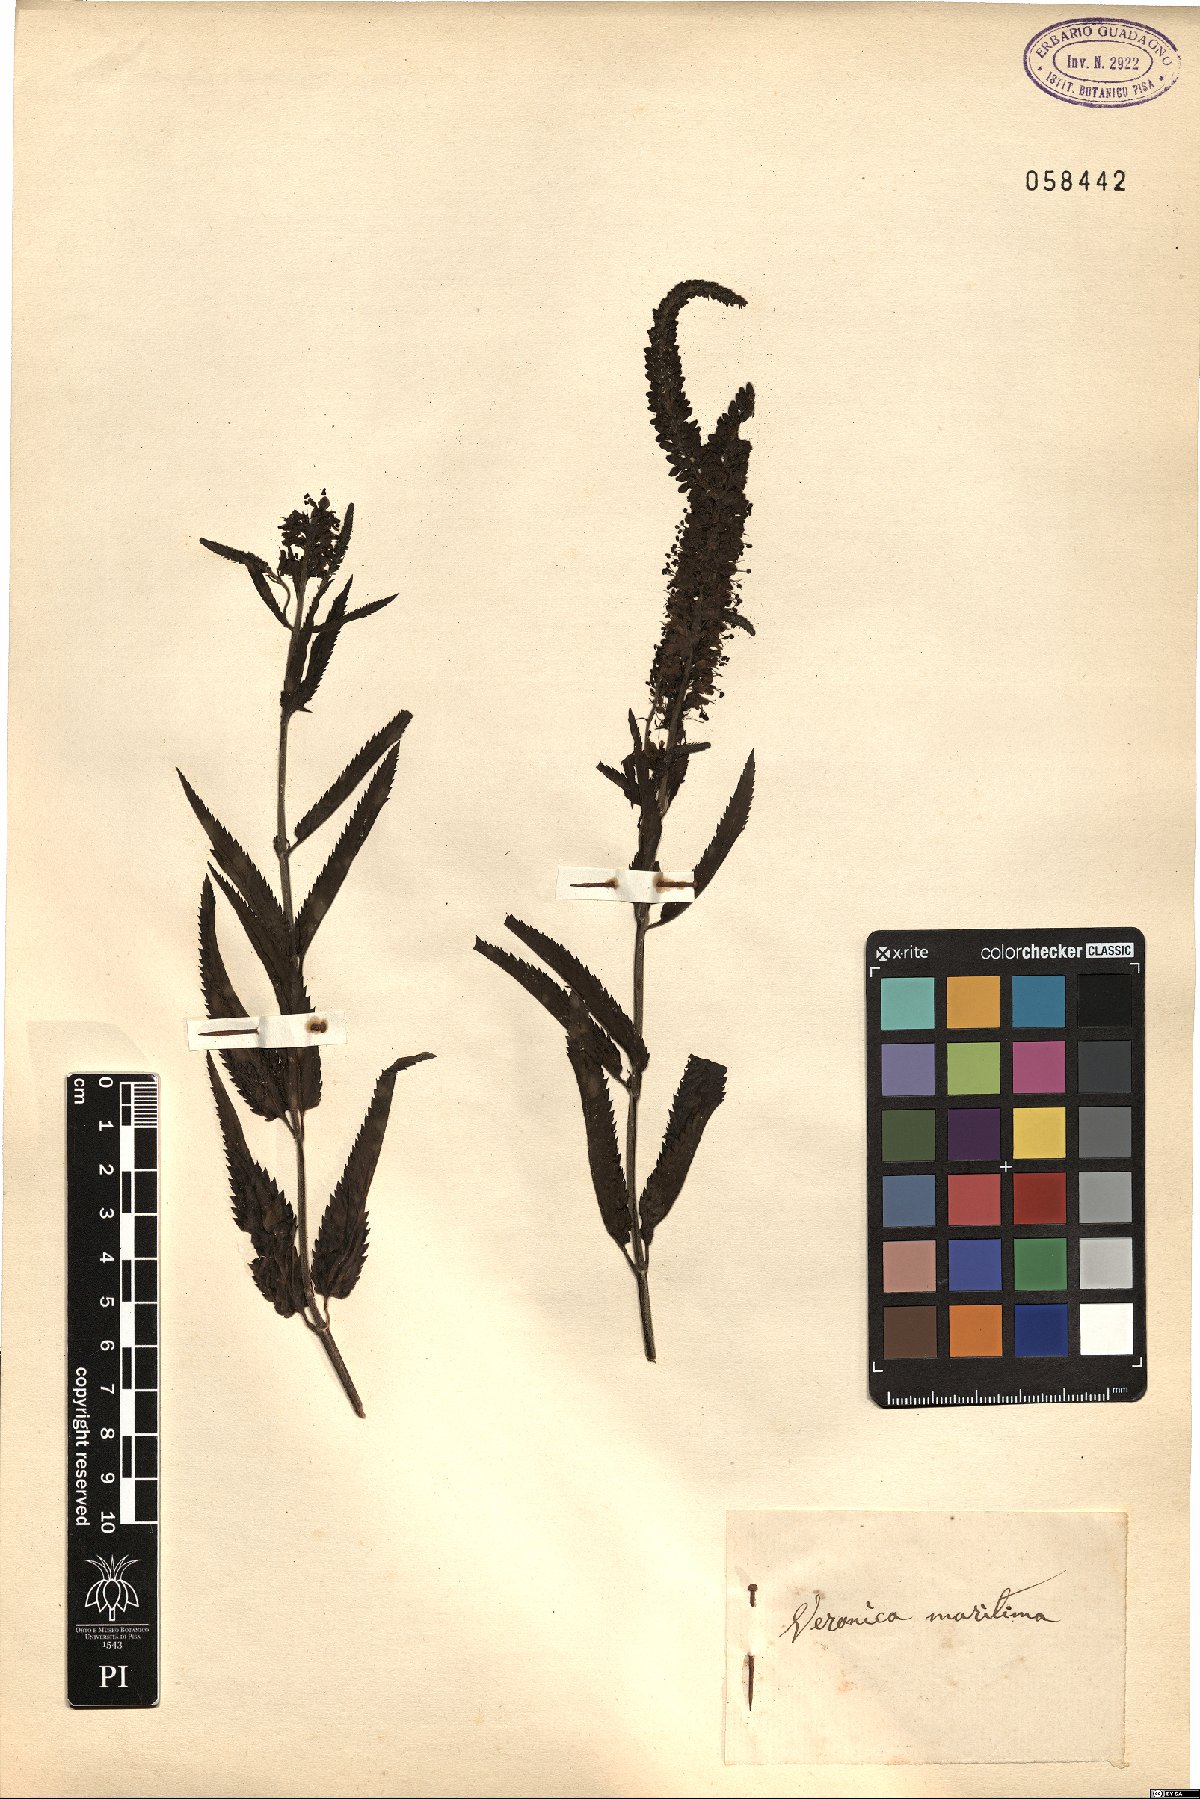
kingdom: Plantae
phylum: Tracheophyta
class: Magnoliopsida
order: Lamiales
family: Plantaginaceae
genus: Veronica
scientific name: Veronica maritima
